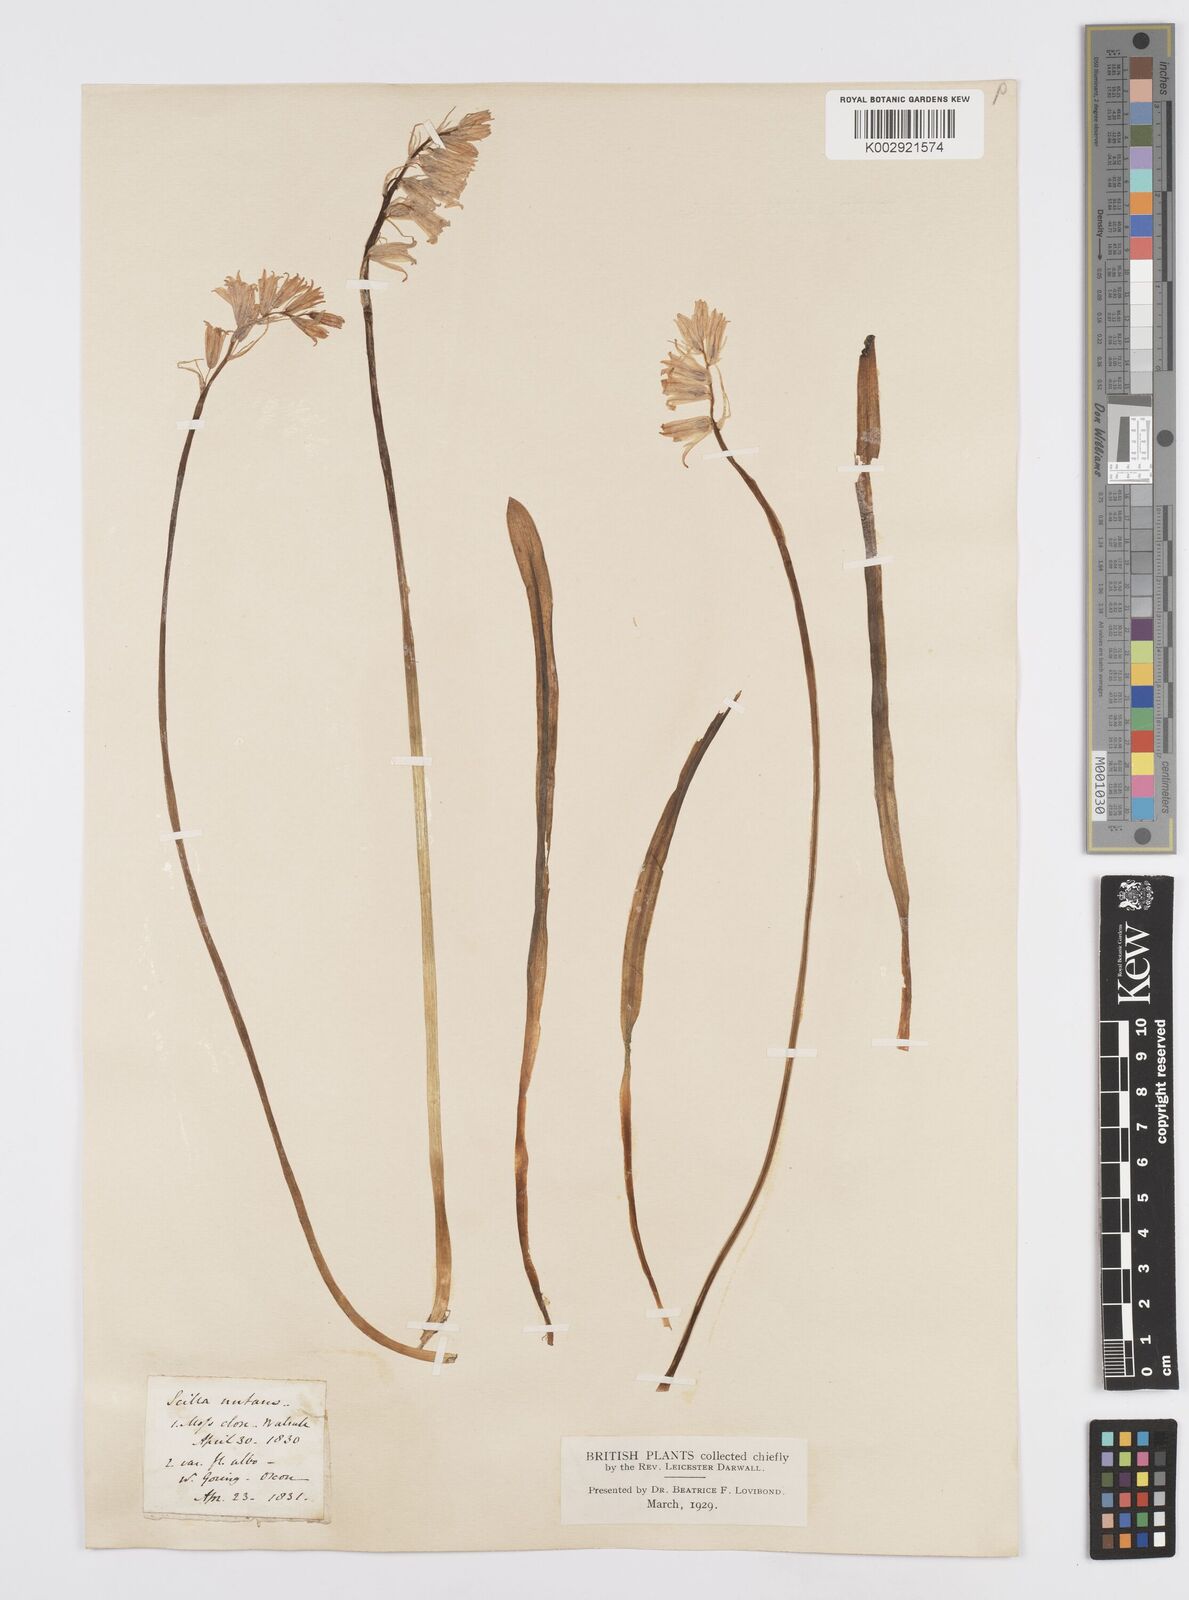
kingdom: Plantae
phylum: Tracheophyta
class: Liliopsida
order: Asparagales
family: Asparagaceae
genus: Hyacinthoides
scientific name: Hyacinthoides non-scripta
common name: Bluebell
